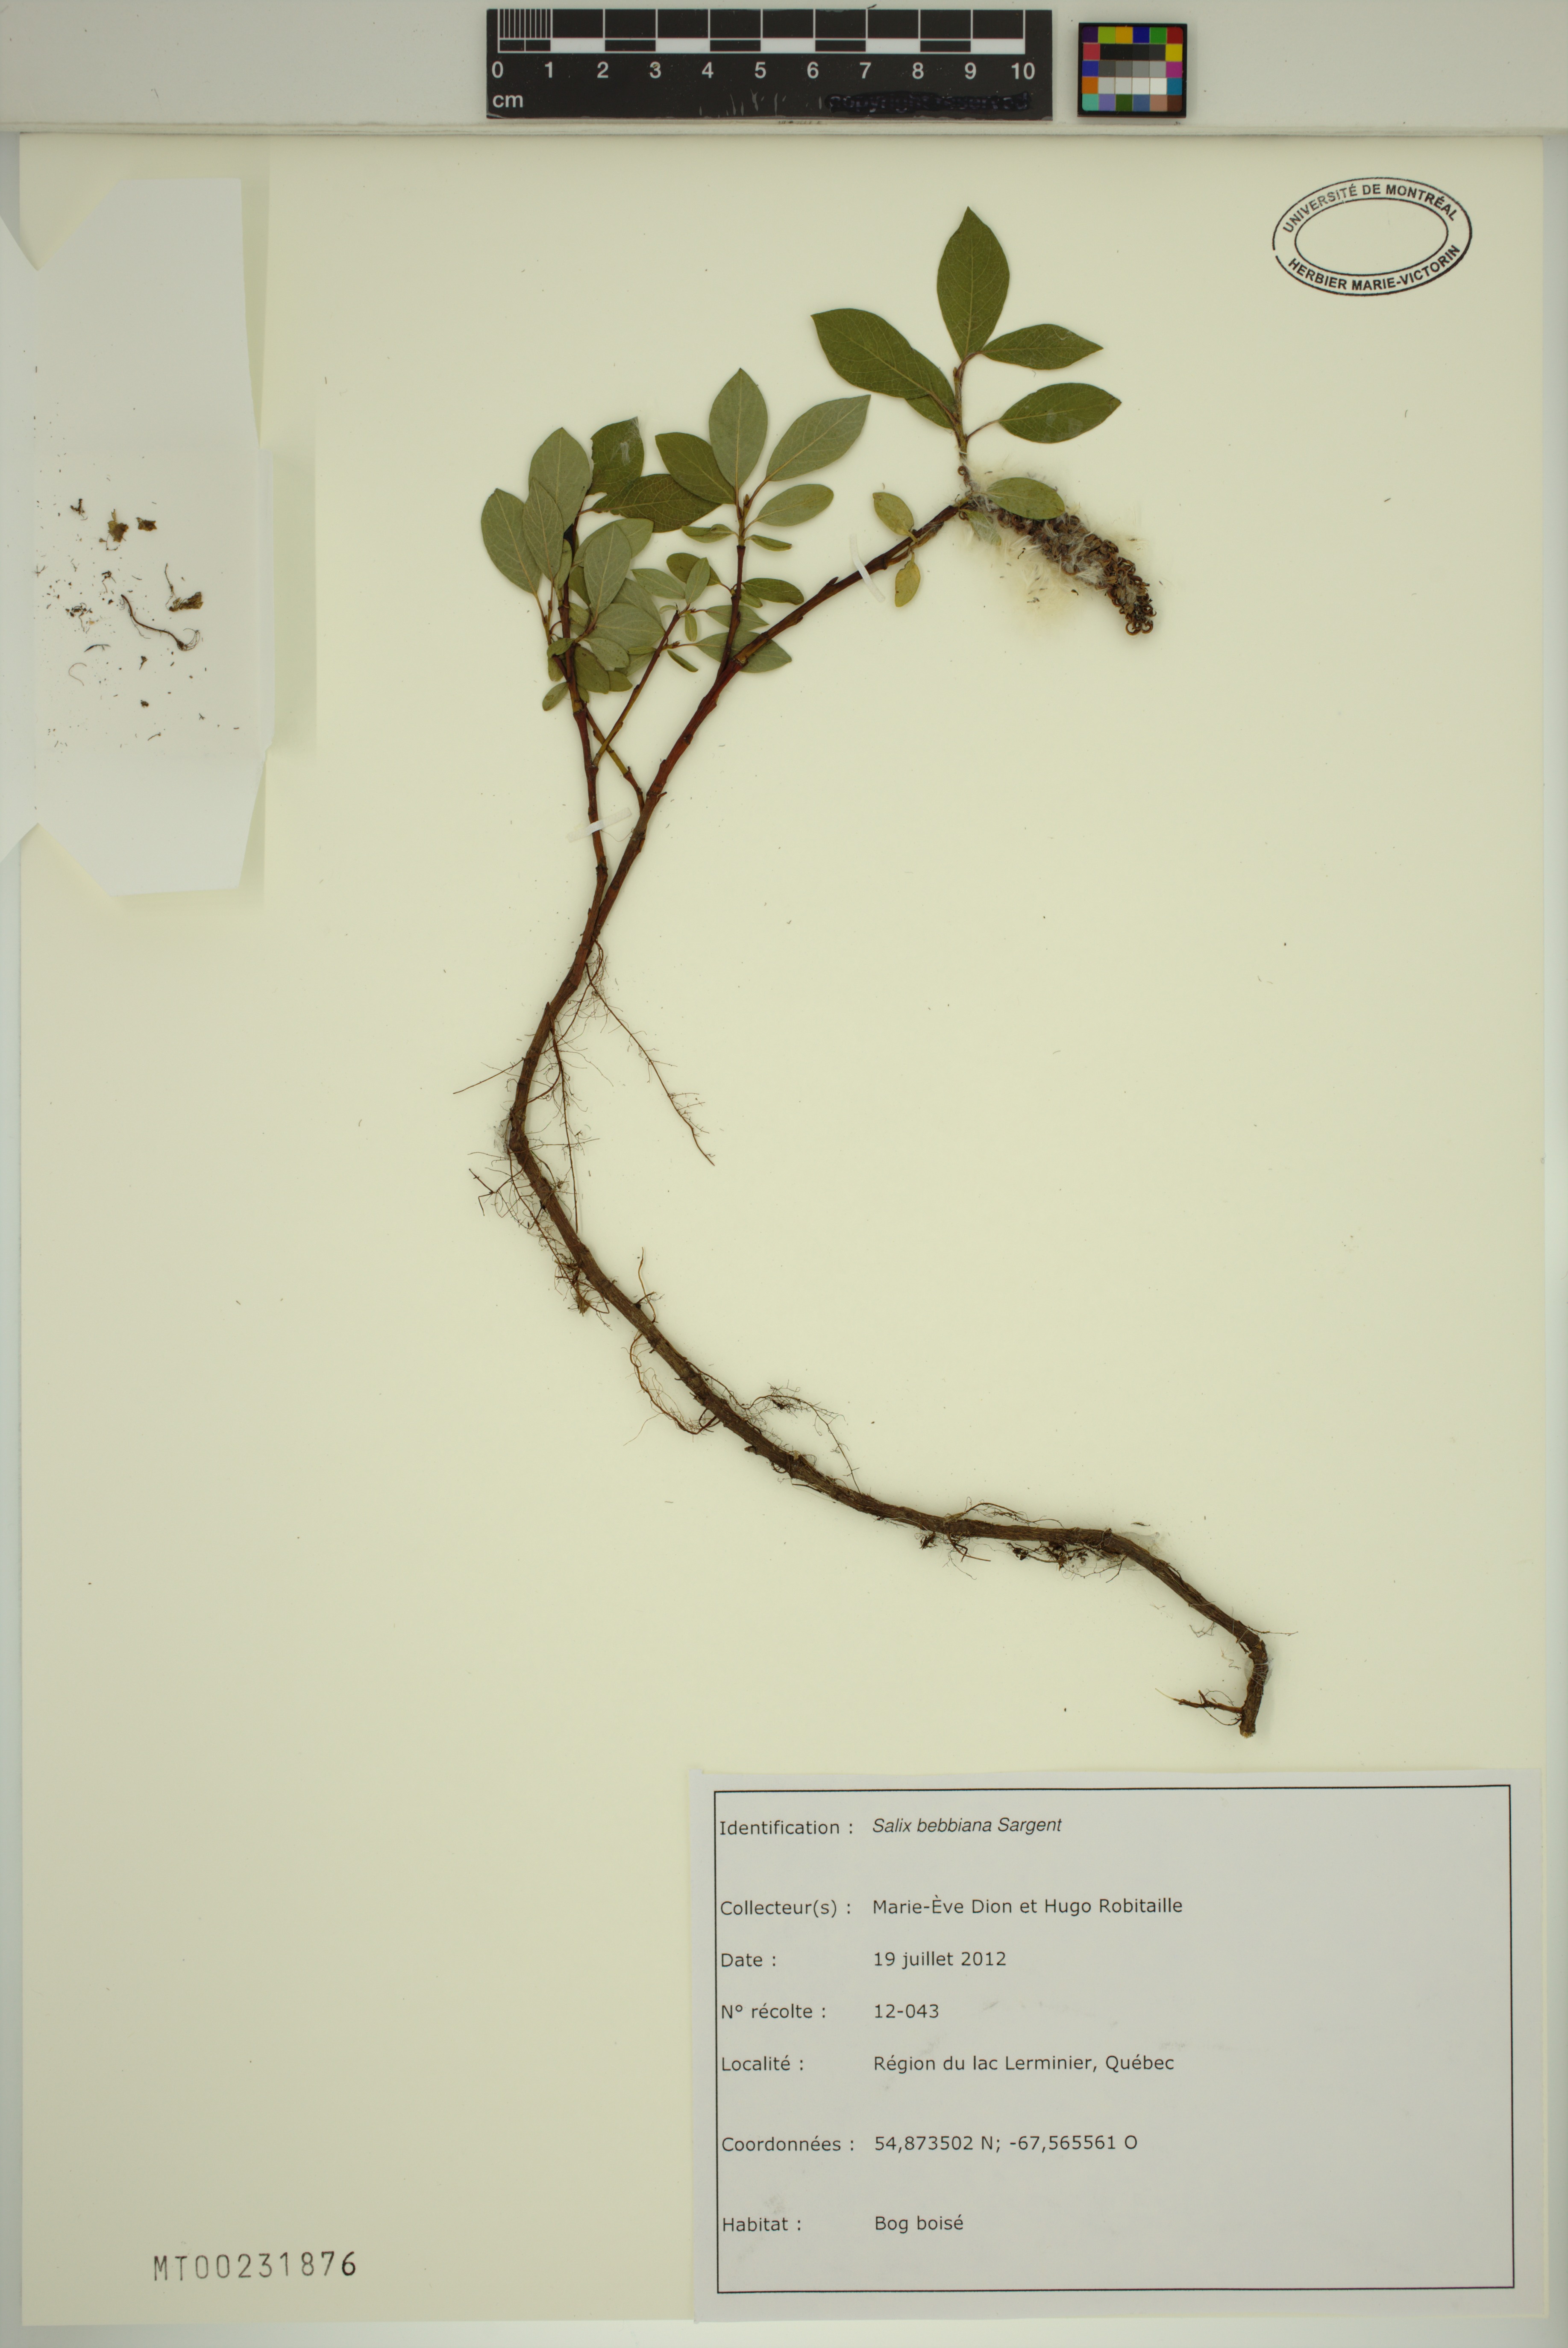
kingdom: Plantae
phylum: Tracheophyta
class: Magnoliopsida
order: Malpighiales
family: Salicaceae
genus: Salix
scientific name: Salix bebbiana
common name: Bebb's willow
